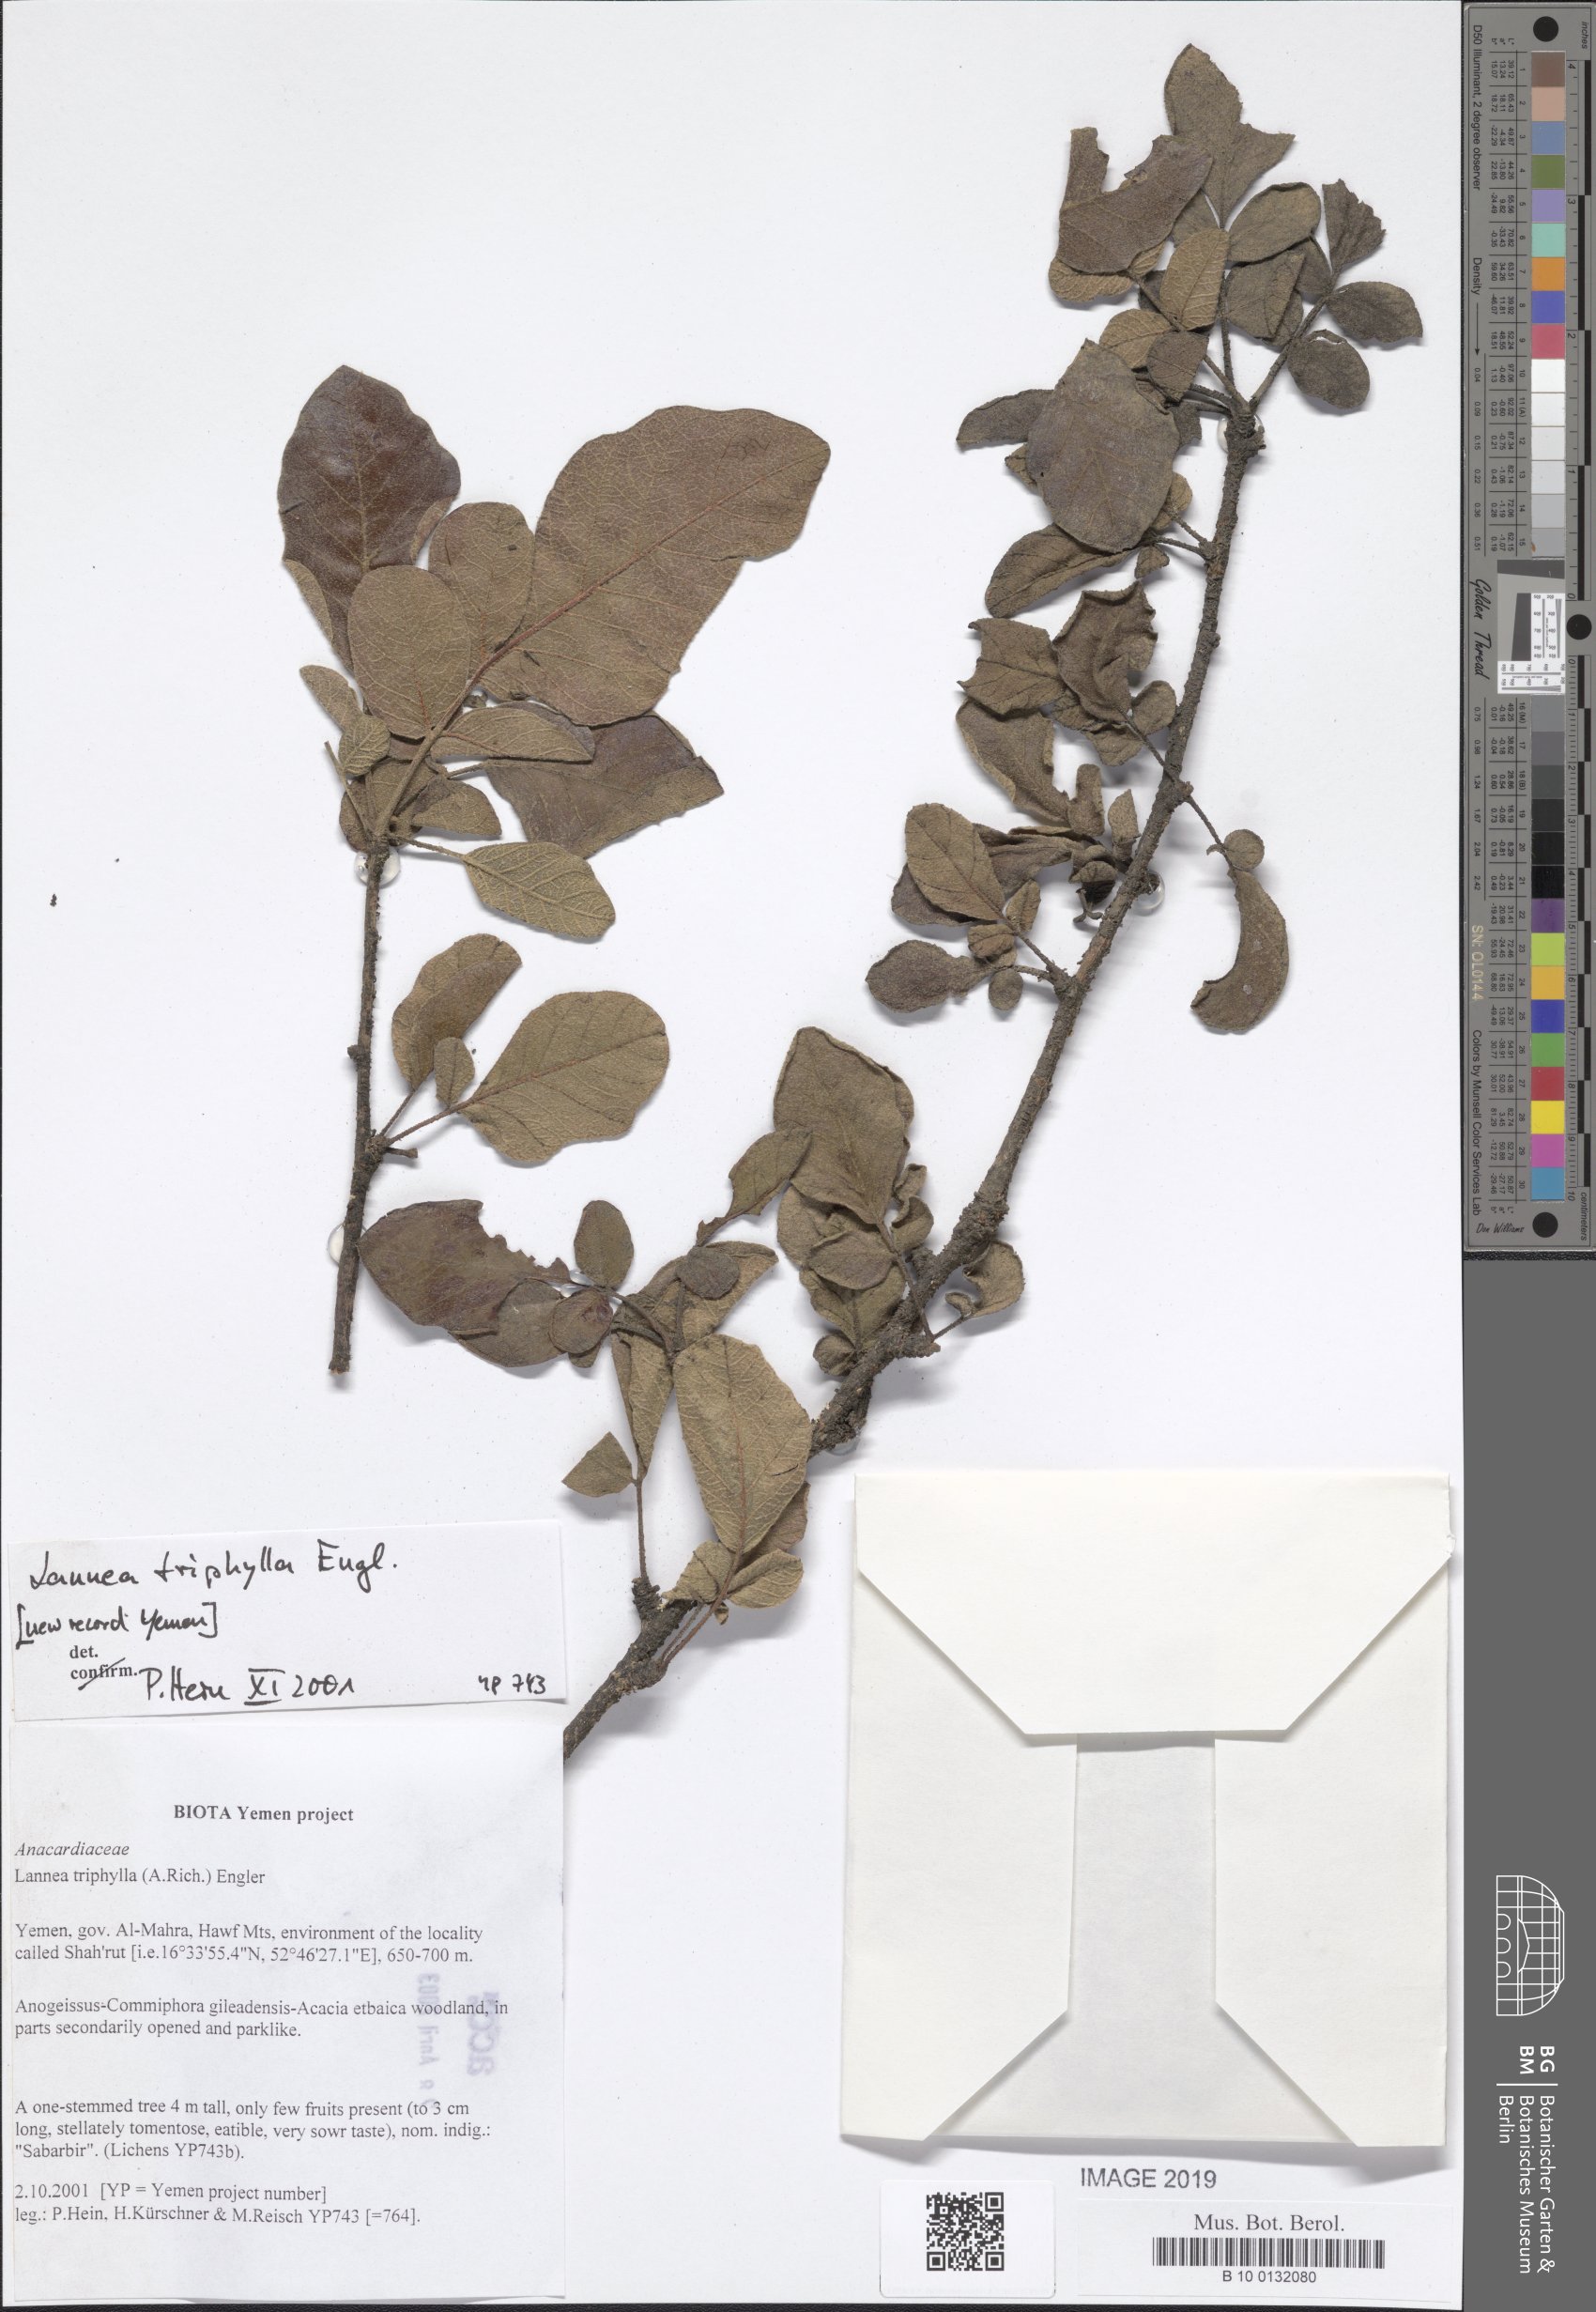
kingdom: Plantae
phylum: Tracheophyta
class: Magnoliopsida
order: Sapindales
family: Anacardiaceae
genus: Lannea
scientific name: Lannea triphylla
